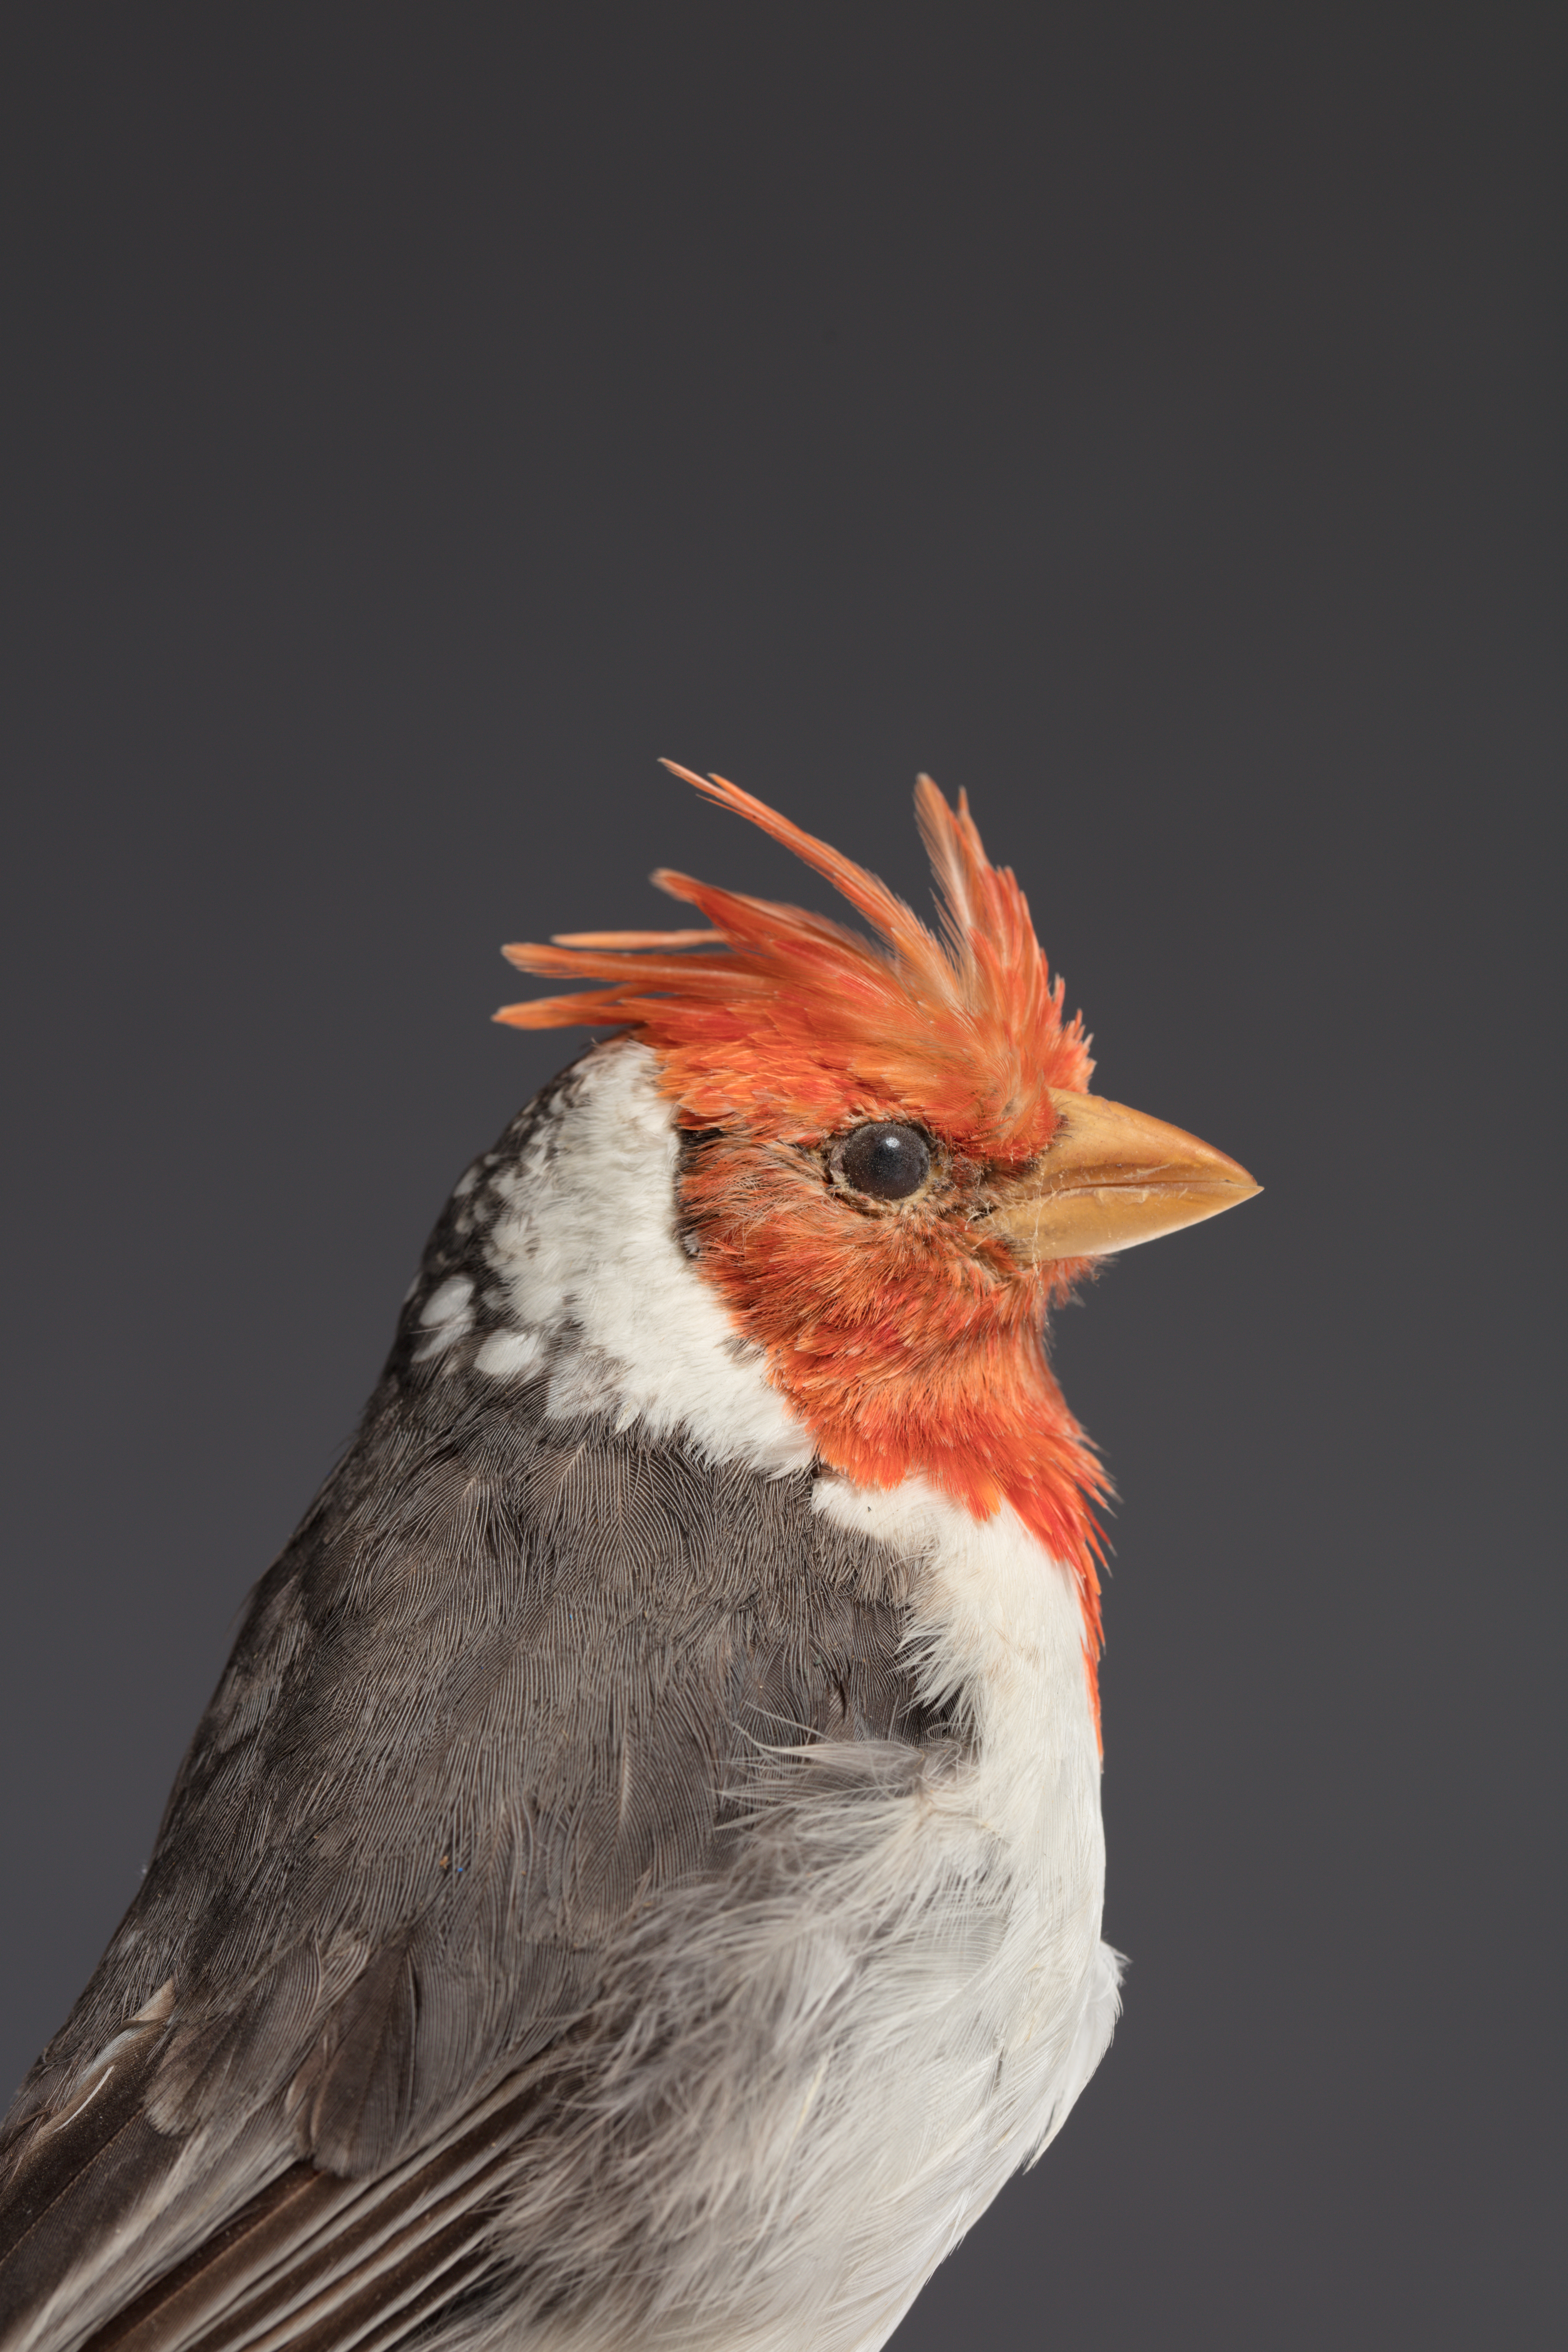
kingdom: Animalia
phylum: Chordata
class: Aves
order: Passeriformes
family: Thraupidae
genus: Paroaria
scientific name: Paroaria coronata
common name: Red-crested cardinal
